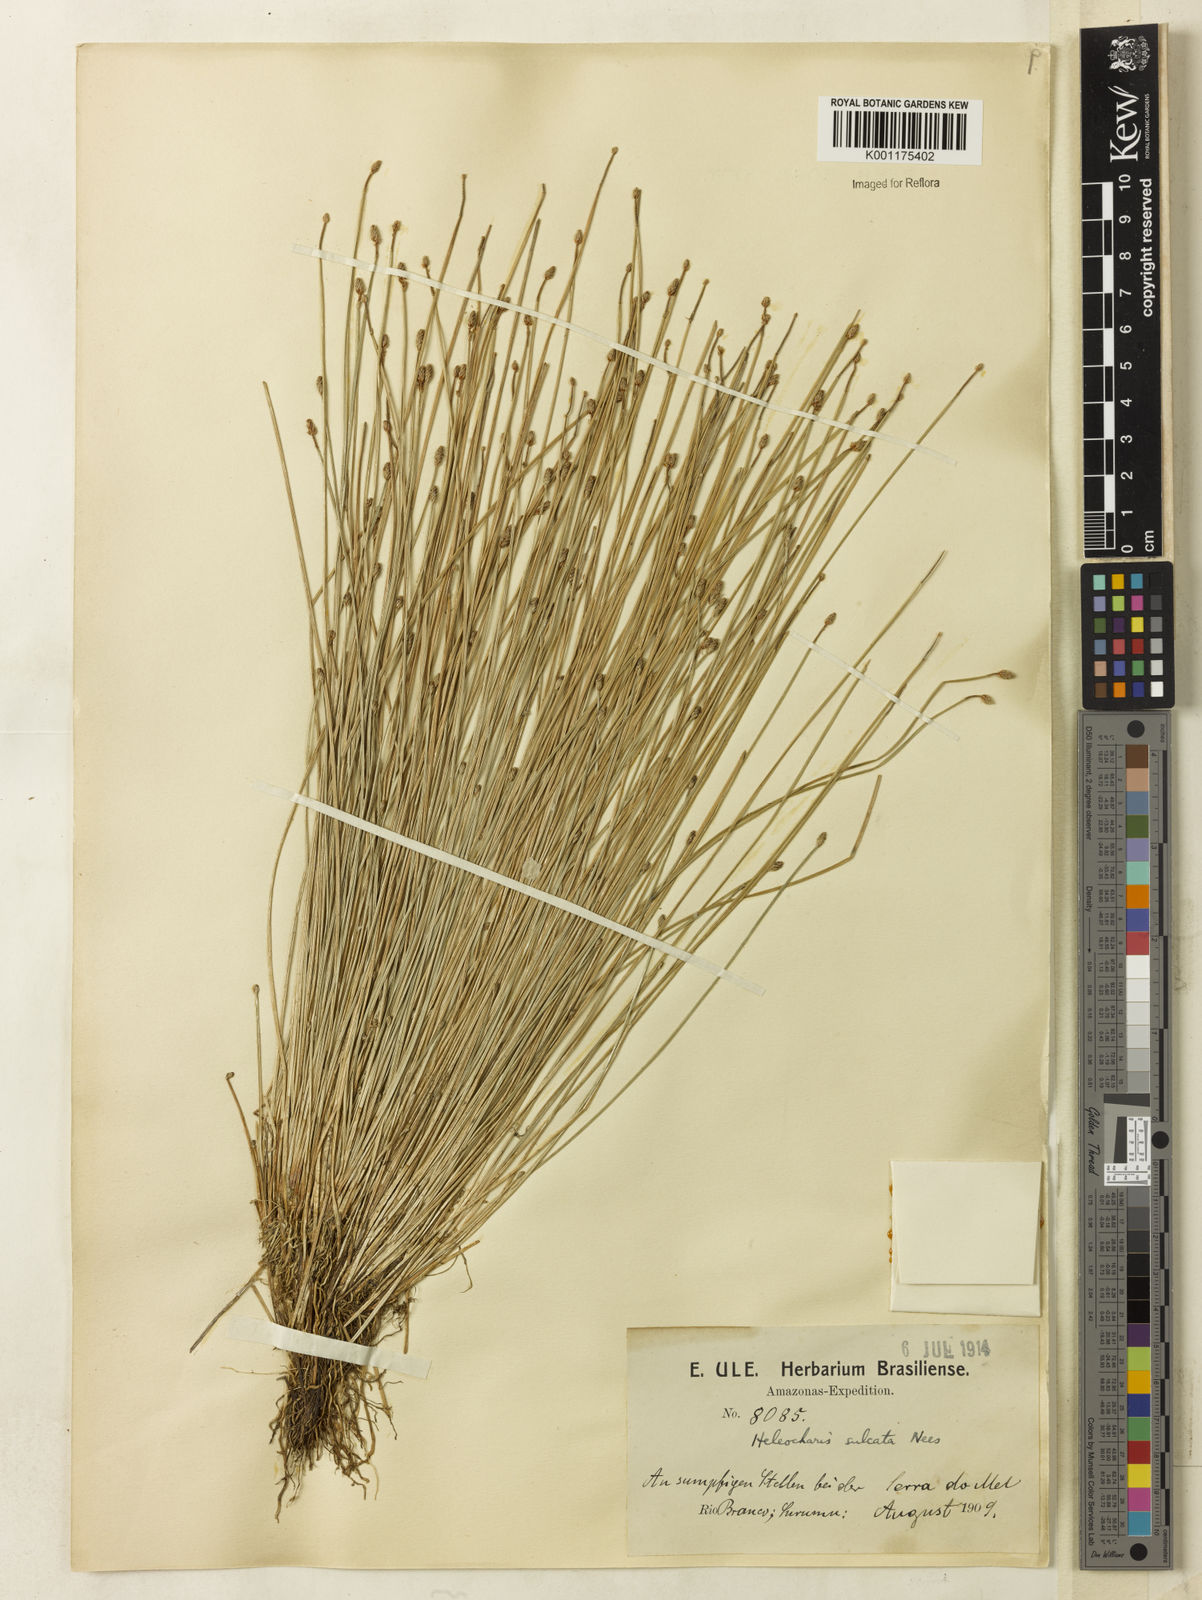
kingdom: Plantae
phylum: Tracheophyta
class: Liliopsida
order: Poales
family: Cyperaceae
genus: Eleocharis
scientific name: Eleocharis filiculmis
